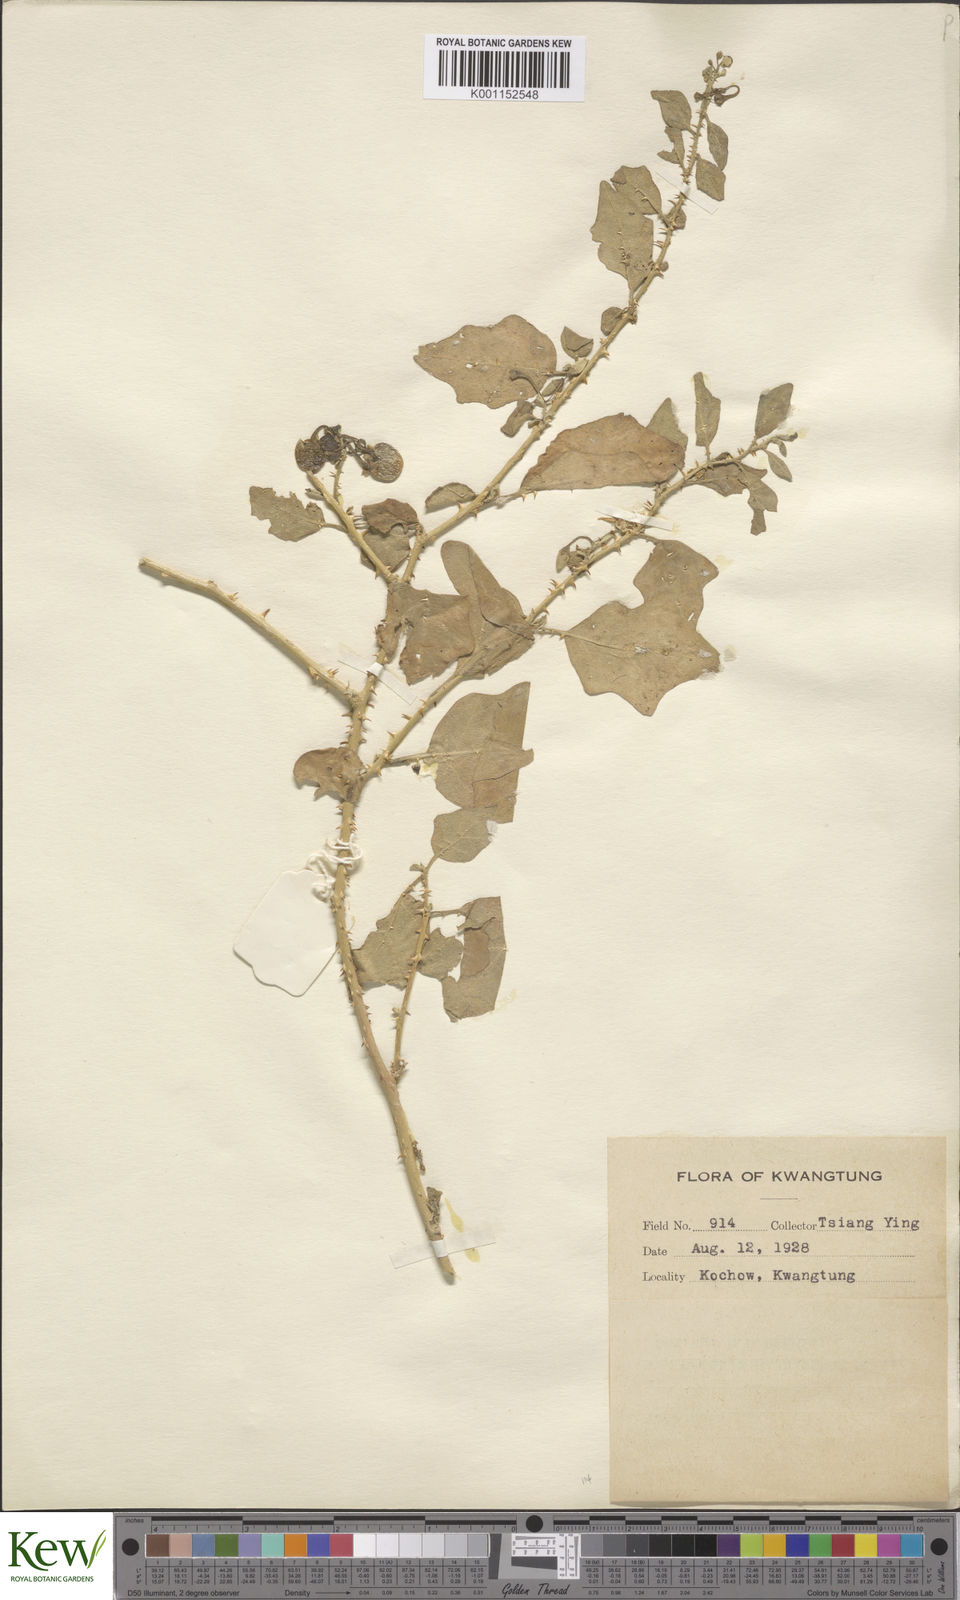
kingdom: Plantae
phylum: Tracheophyta
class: Magnoliopsida
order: Solanales
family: Solanaceae
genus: Solanum
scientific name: Solanum procumbens
